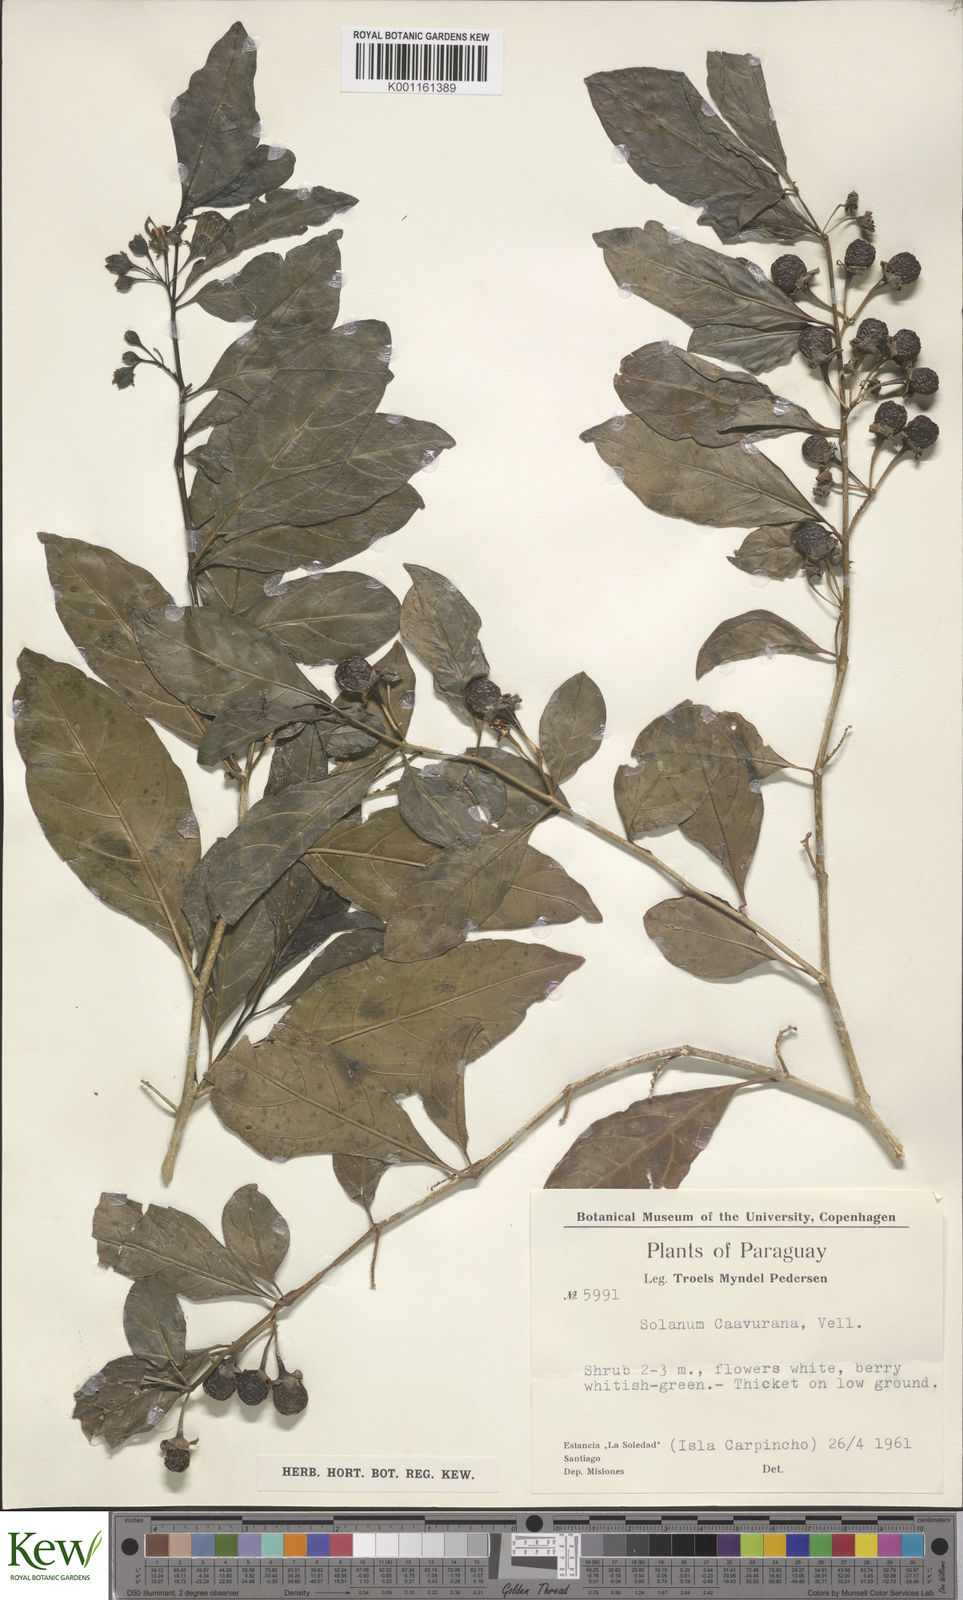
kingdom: Plantae
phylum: Tracheophyta
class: Magnoliopsida
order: Solanales
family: Solanaceae
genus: Solanum
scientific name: Solanum caavurana
